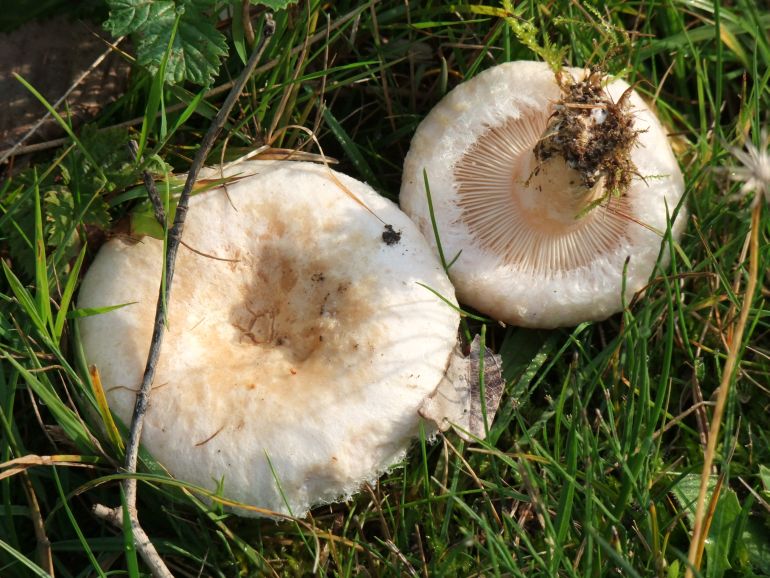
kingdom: Fungi
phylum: Basidiomycota
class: Agaricomycetes
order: Russulales
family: Russulaceae
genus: Lactarius
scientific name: Lactarius pubescens
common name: dunet mælkehat
